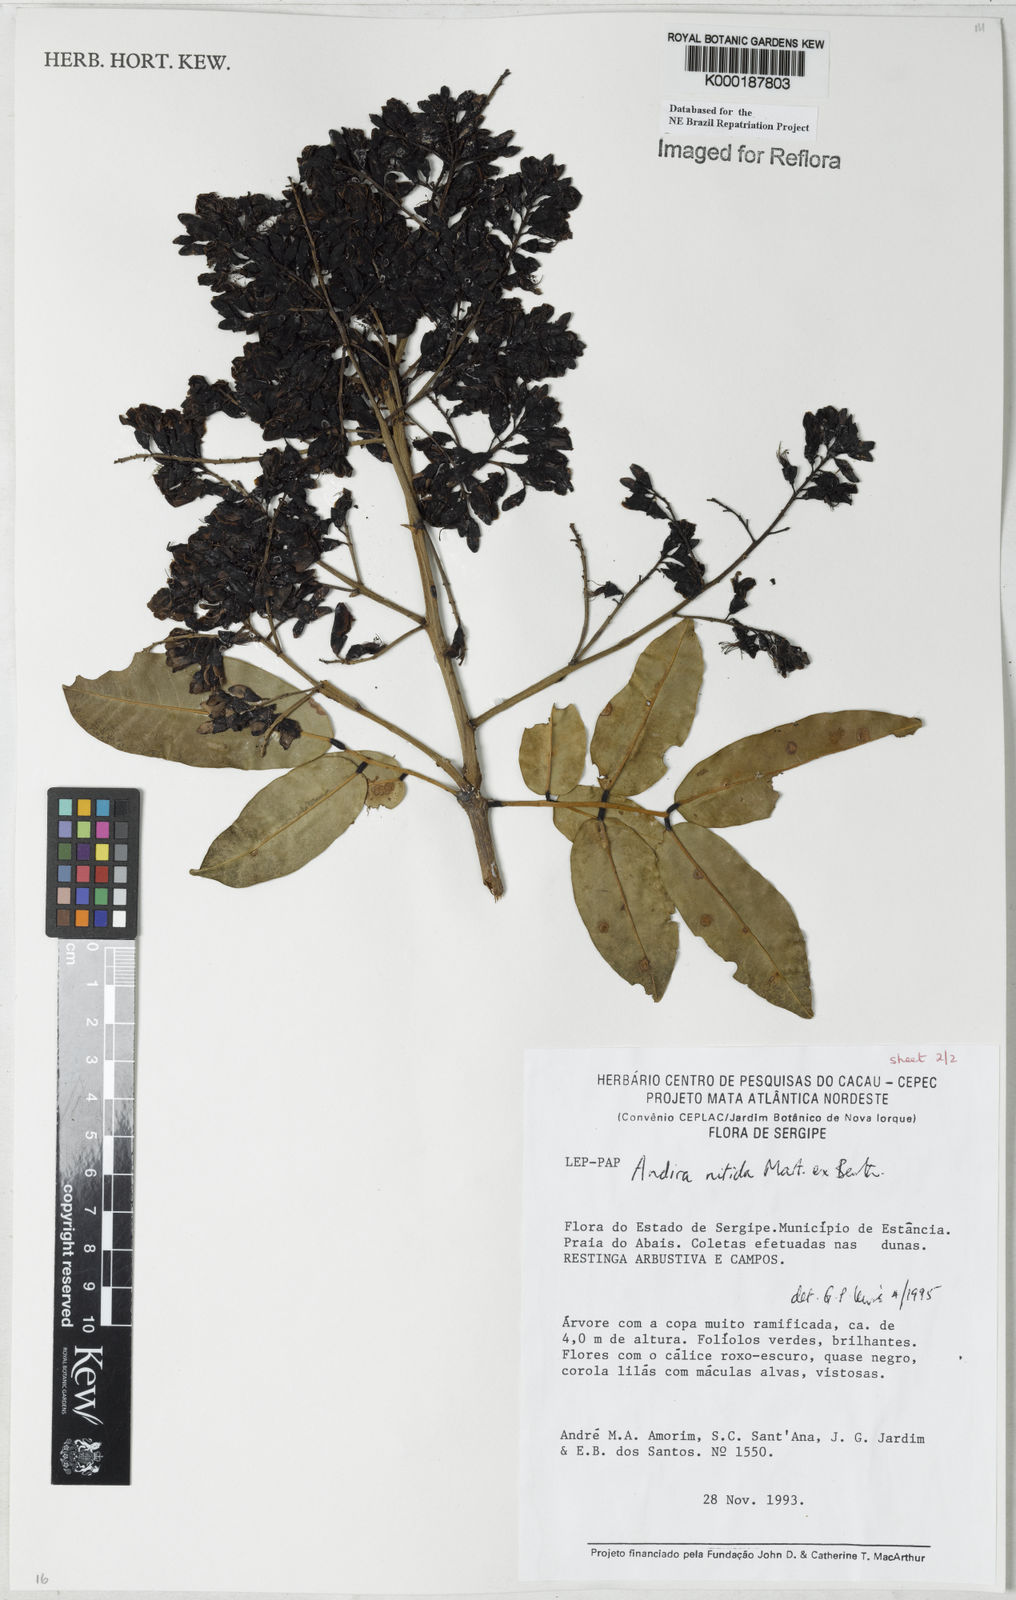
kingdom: Plantae
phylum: Tracheophyta
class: Magnoliopsida
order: Fabales
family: Fabaceae
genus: Andira
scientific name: Andira nitida
